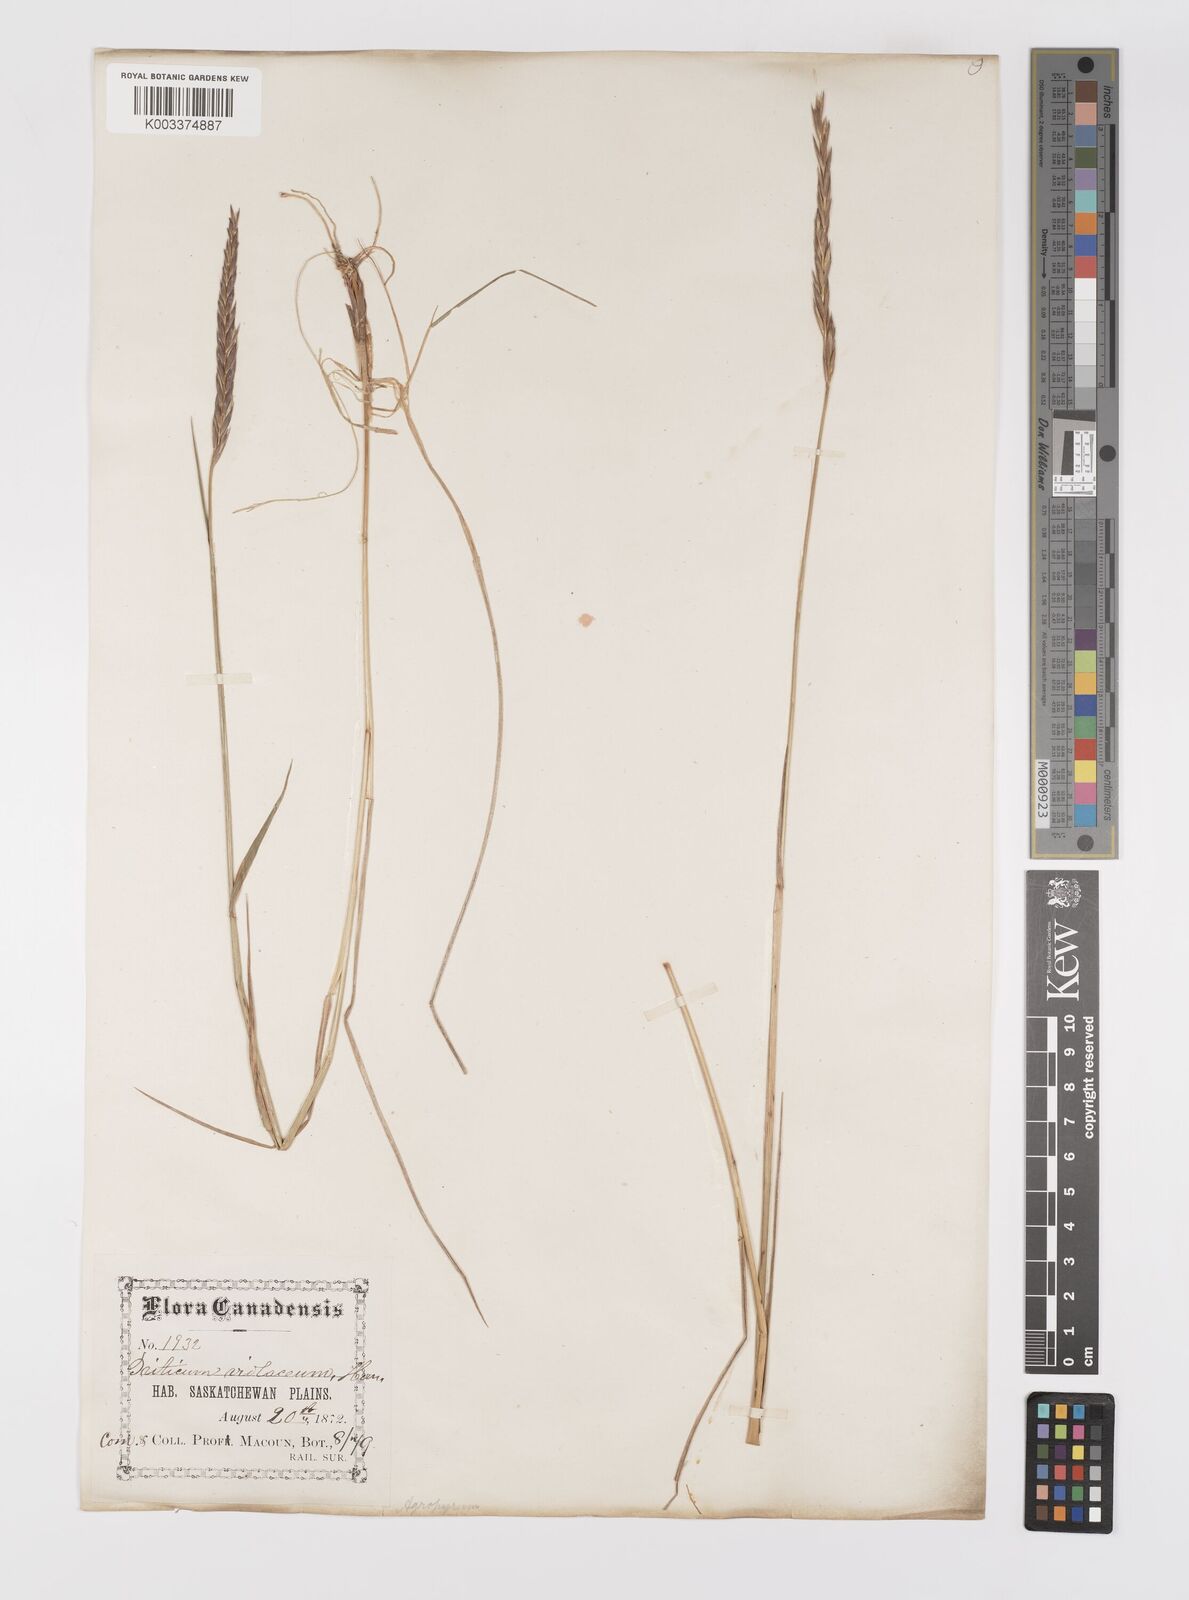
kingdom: Plantae
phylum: Tracheophyta
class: Liliopsida
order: Poales
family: Poaceae
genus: Elymus
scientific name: Elymus violaceus
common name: Arctic wheatgrass
